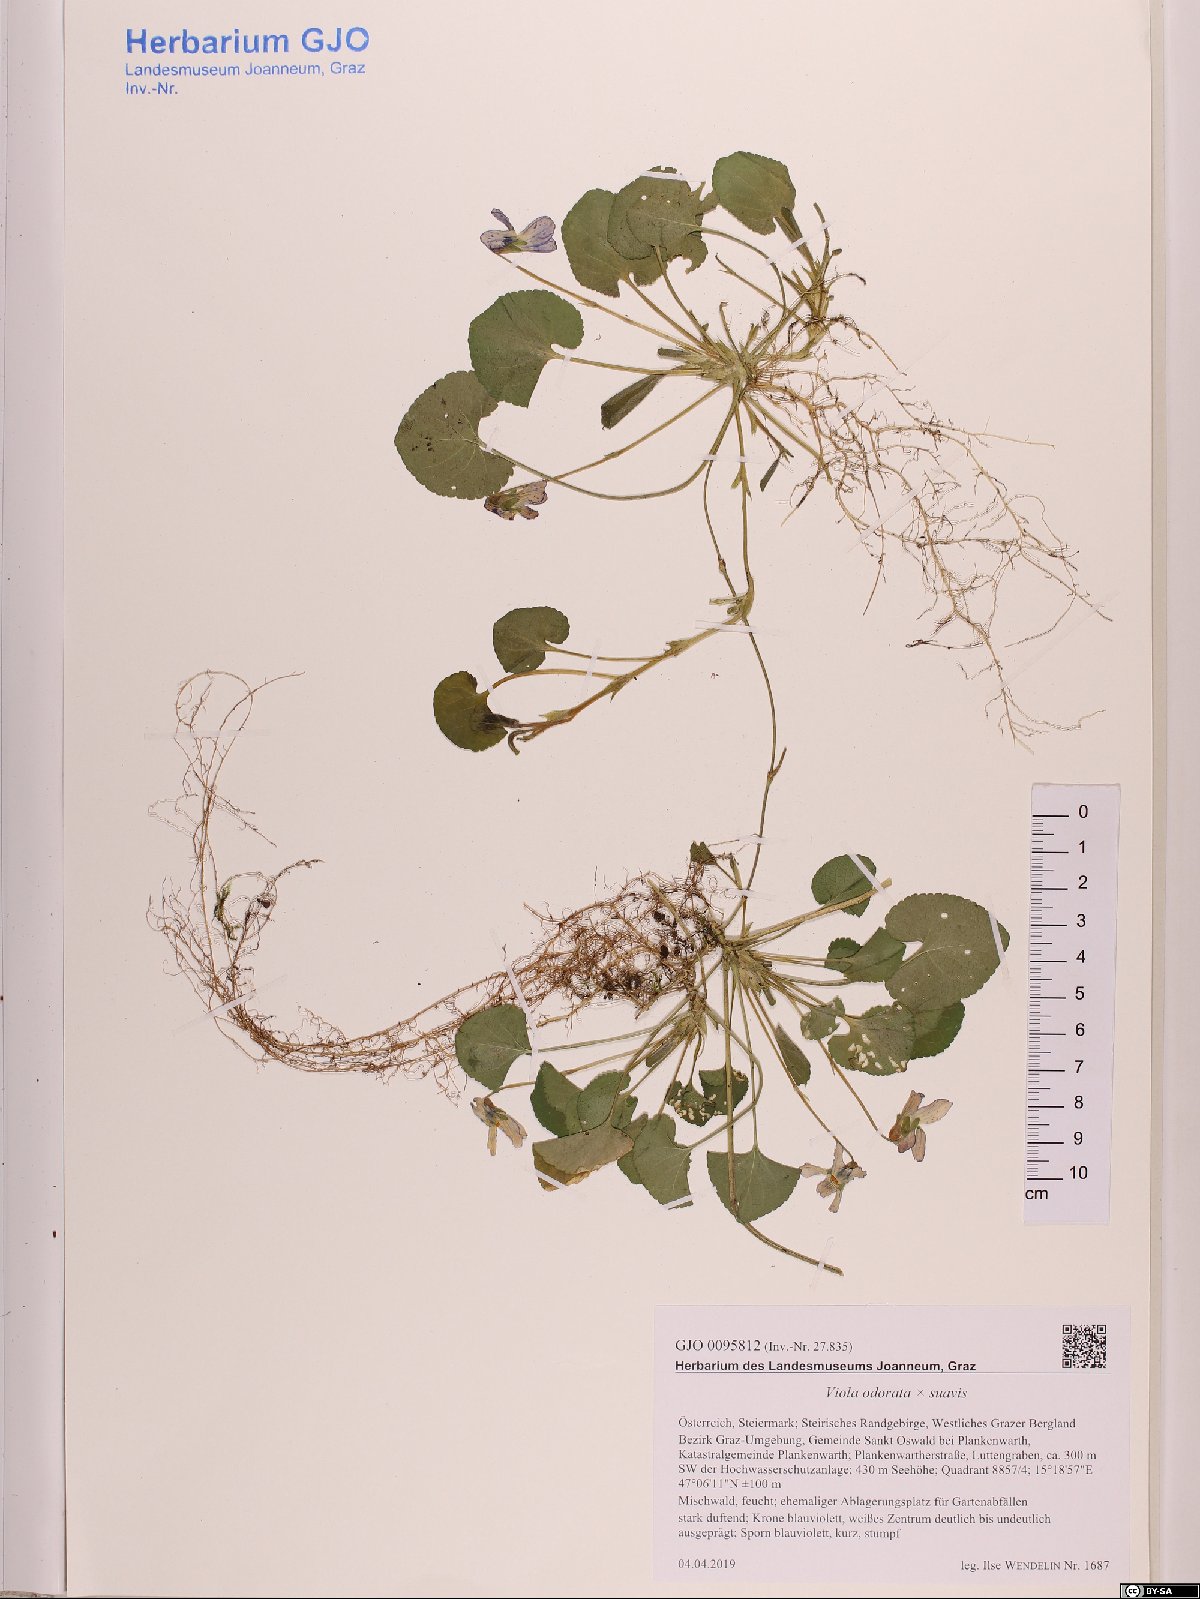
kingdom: Plantae
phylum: Tracheophyta
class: Magnoliopsida
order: Malpighiales
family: Violaceae
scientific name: Violaceae
